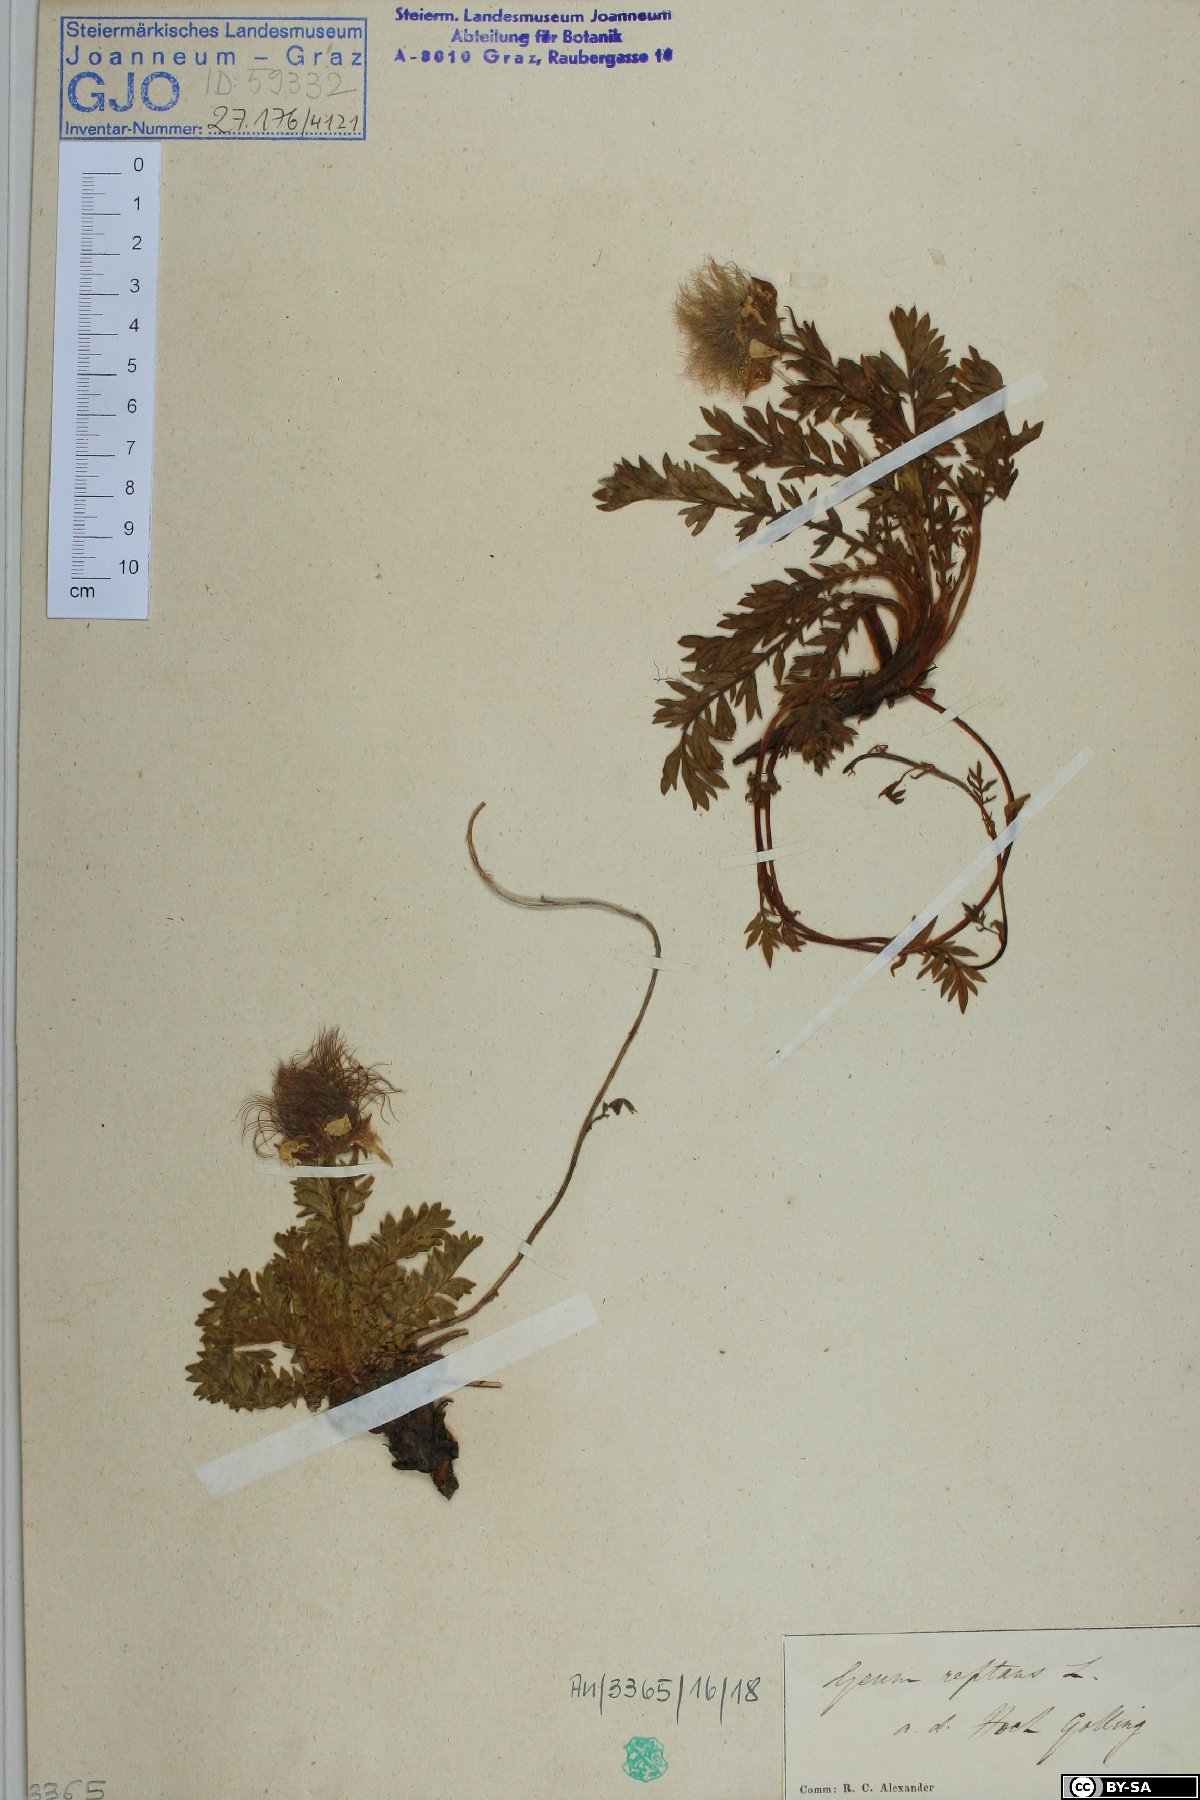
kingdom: Plantae
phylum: Tracheophyta
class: Magnoliopsida
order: Rosales
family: Rosaceae
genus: Geum
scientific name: Geum reptans
